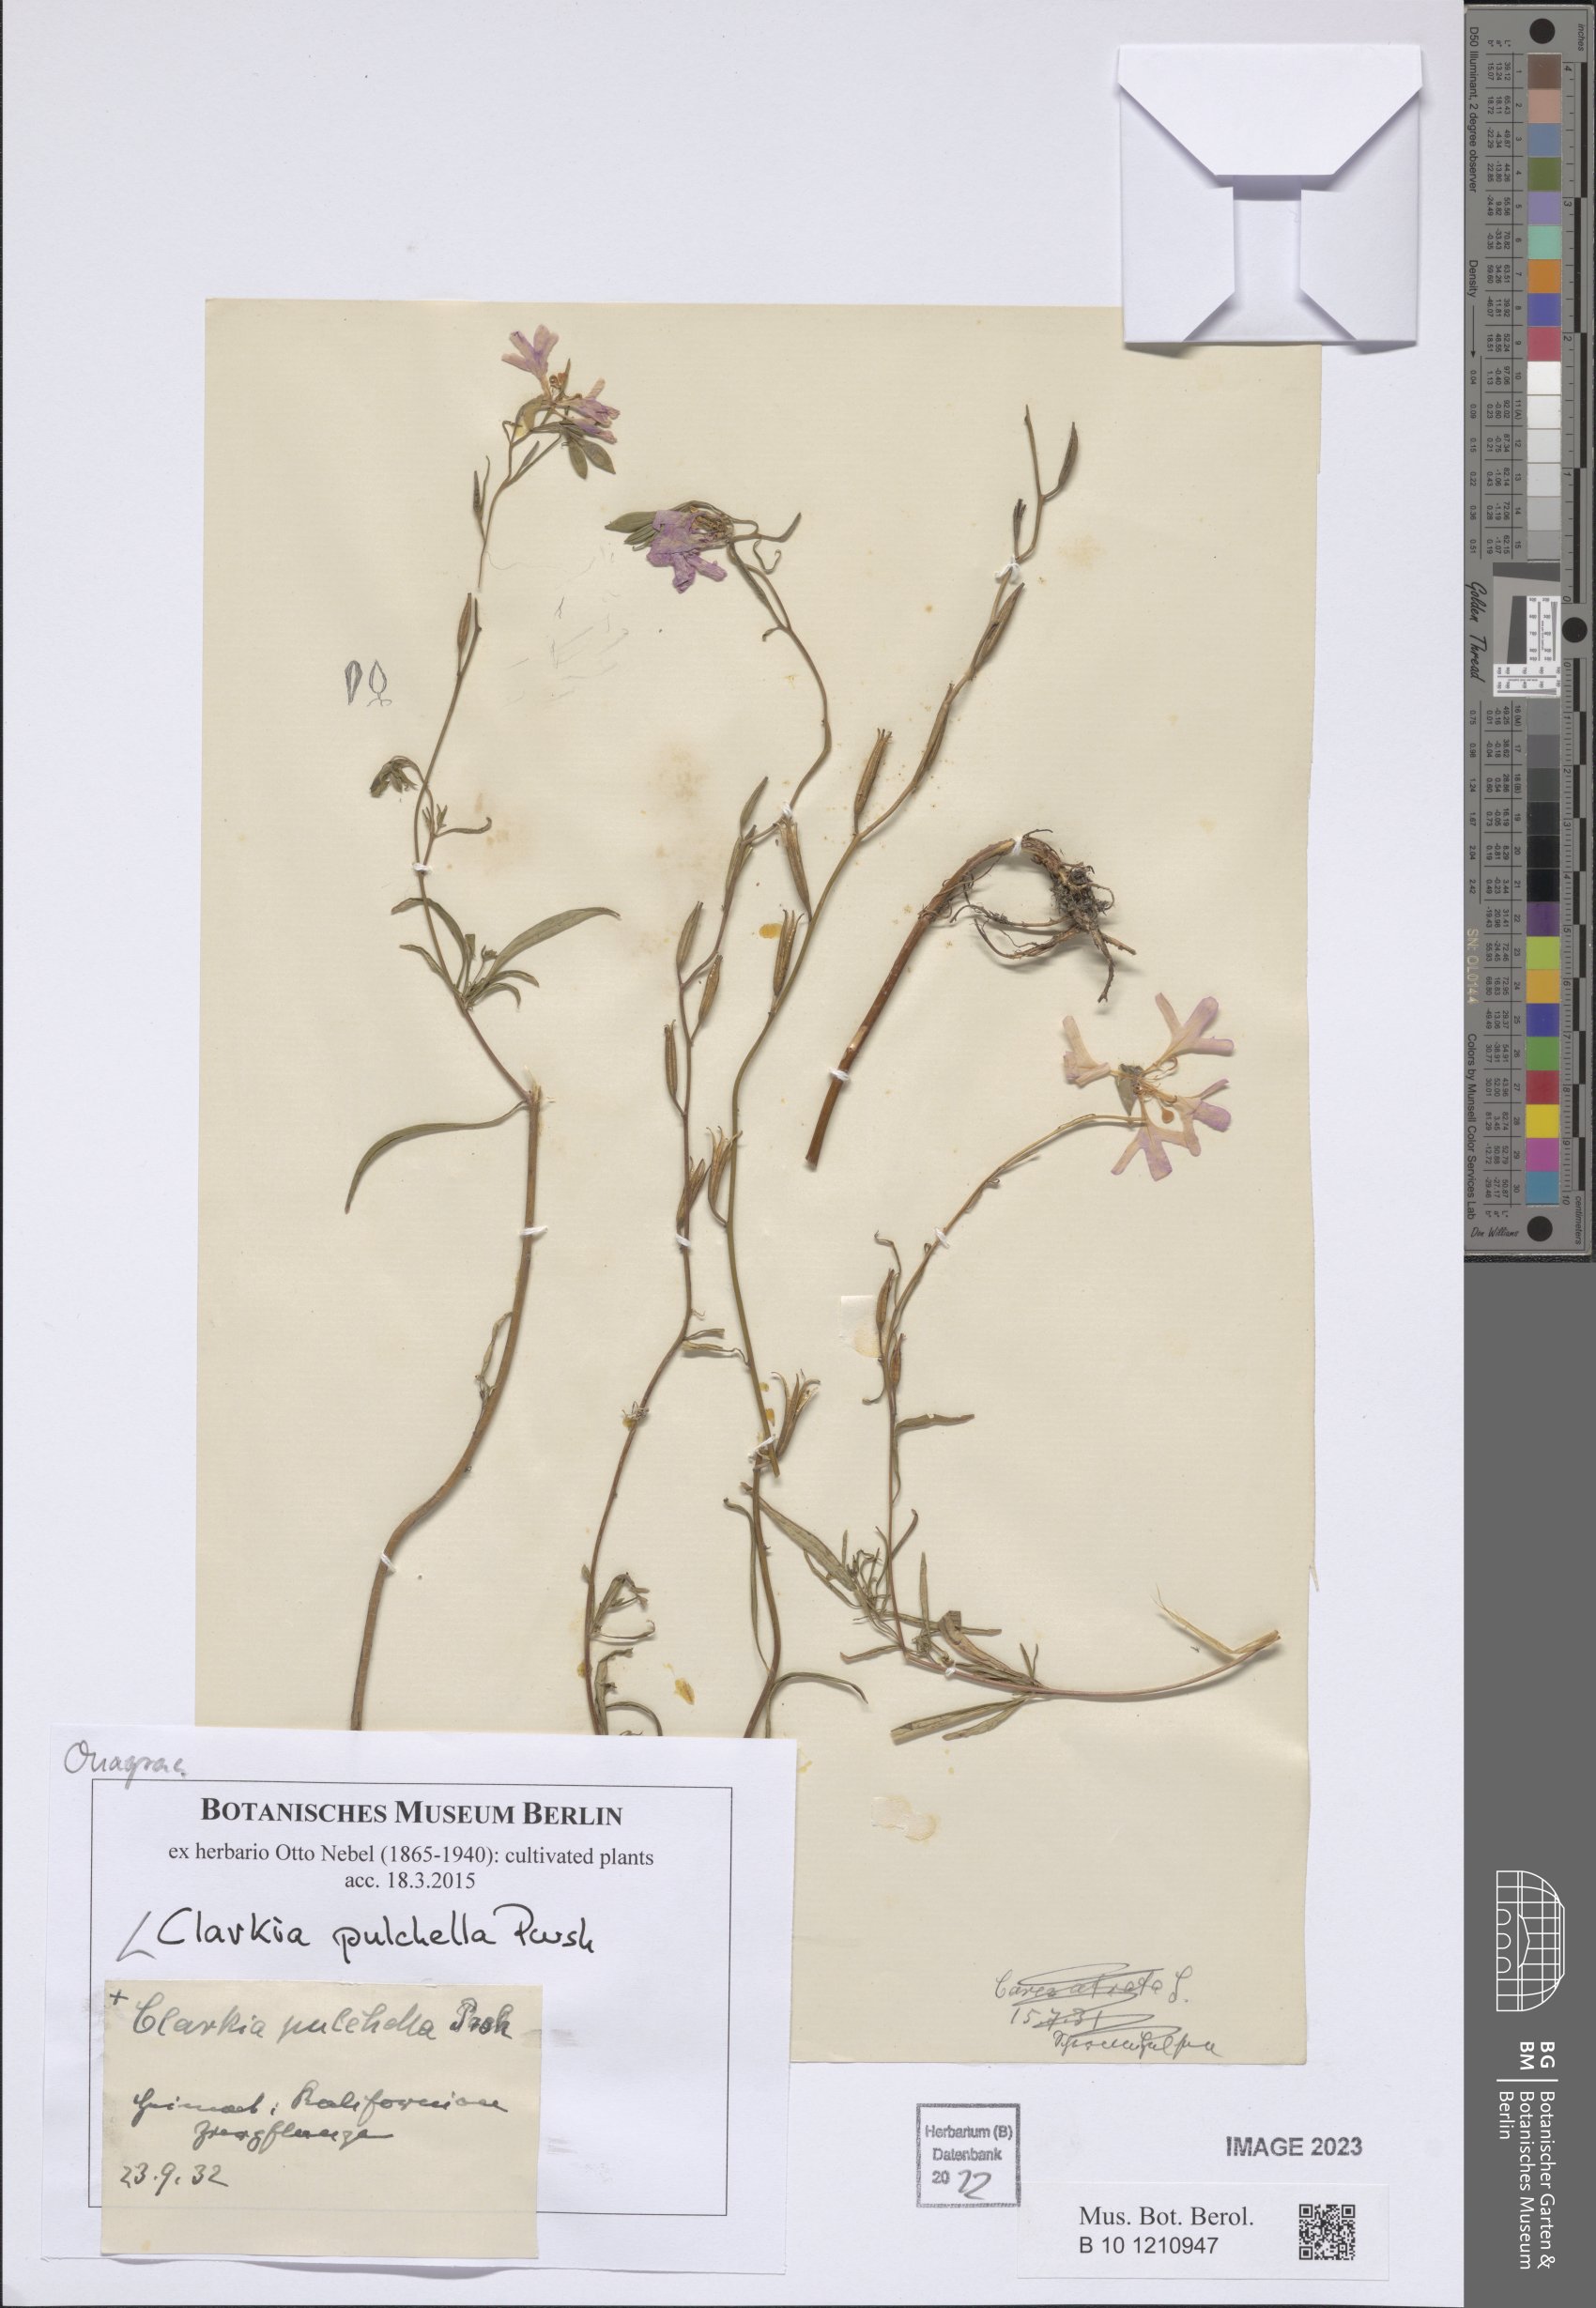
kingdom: Plantae
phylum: Tracheophyta
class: Magnoliopsida
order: Myrtales
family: Onagraceae
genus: Clarkia
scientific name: Clarkia pulchella
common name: Deer horn
